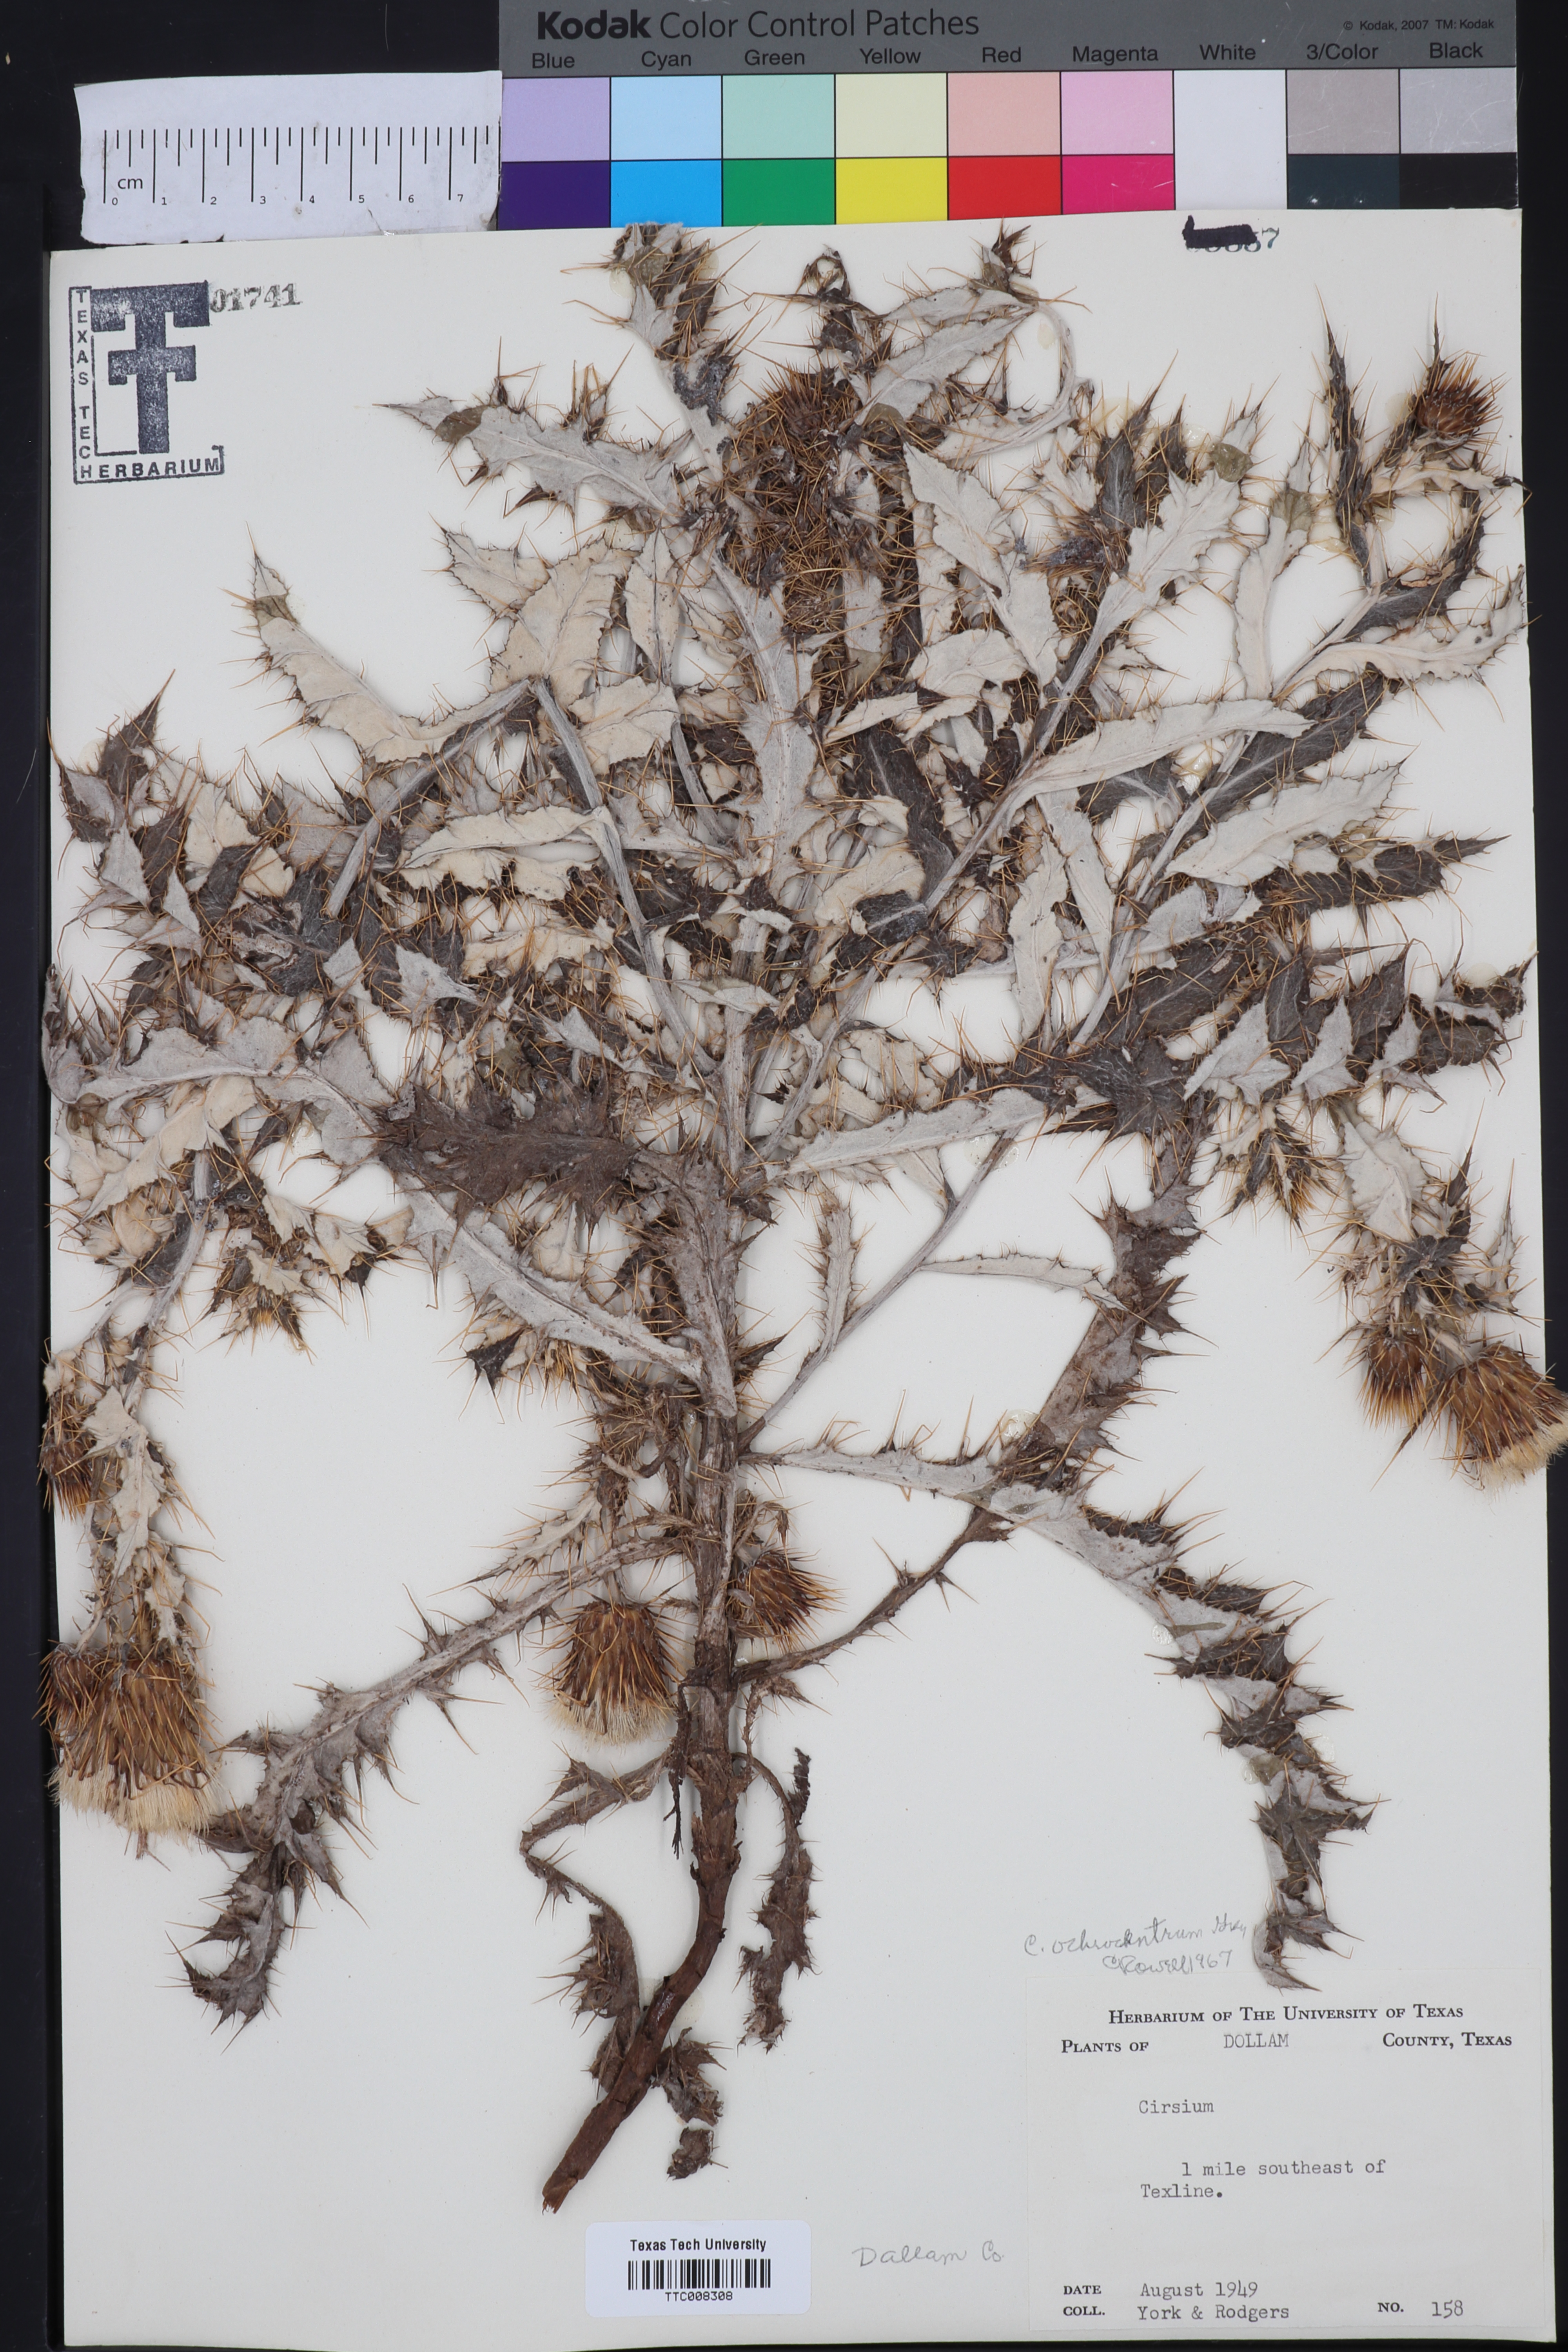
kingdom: Plantae
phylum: Tracheophyta
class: Magnoliopsida
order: Asterales
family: Asteraceae
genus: Cirsium
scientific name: Cirsium ochrocentrum
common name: Yellow-spine thistle
